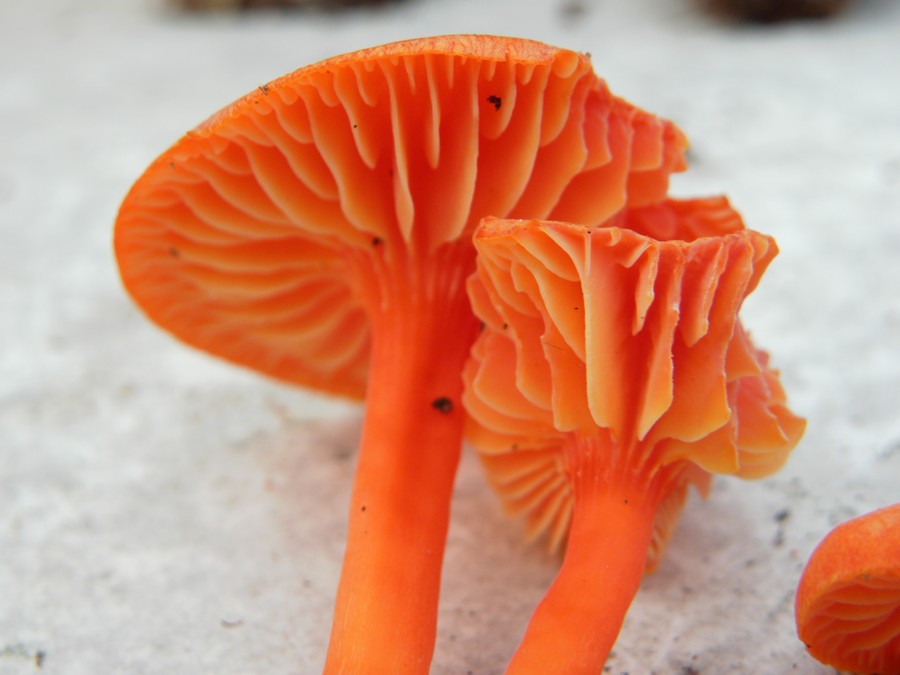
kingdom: Fungi
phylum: Basidiomycota
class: Agaricomycetes
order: Agaricales
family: Hygrophoraceae
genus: Hygrocybe
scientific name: Hygrocybe miniata
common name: mønje-vokshat
